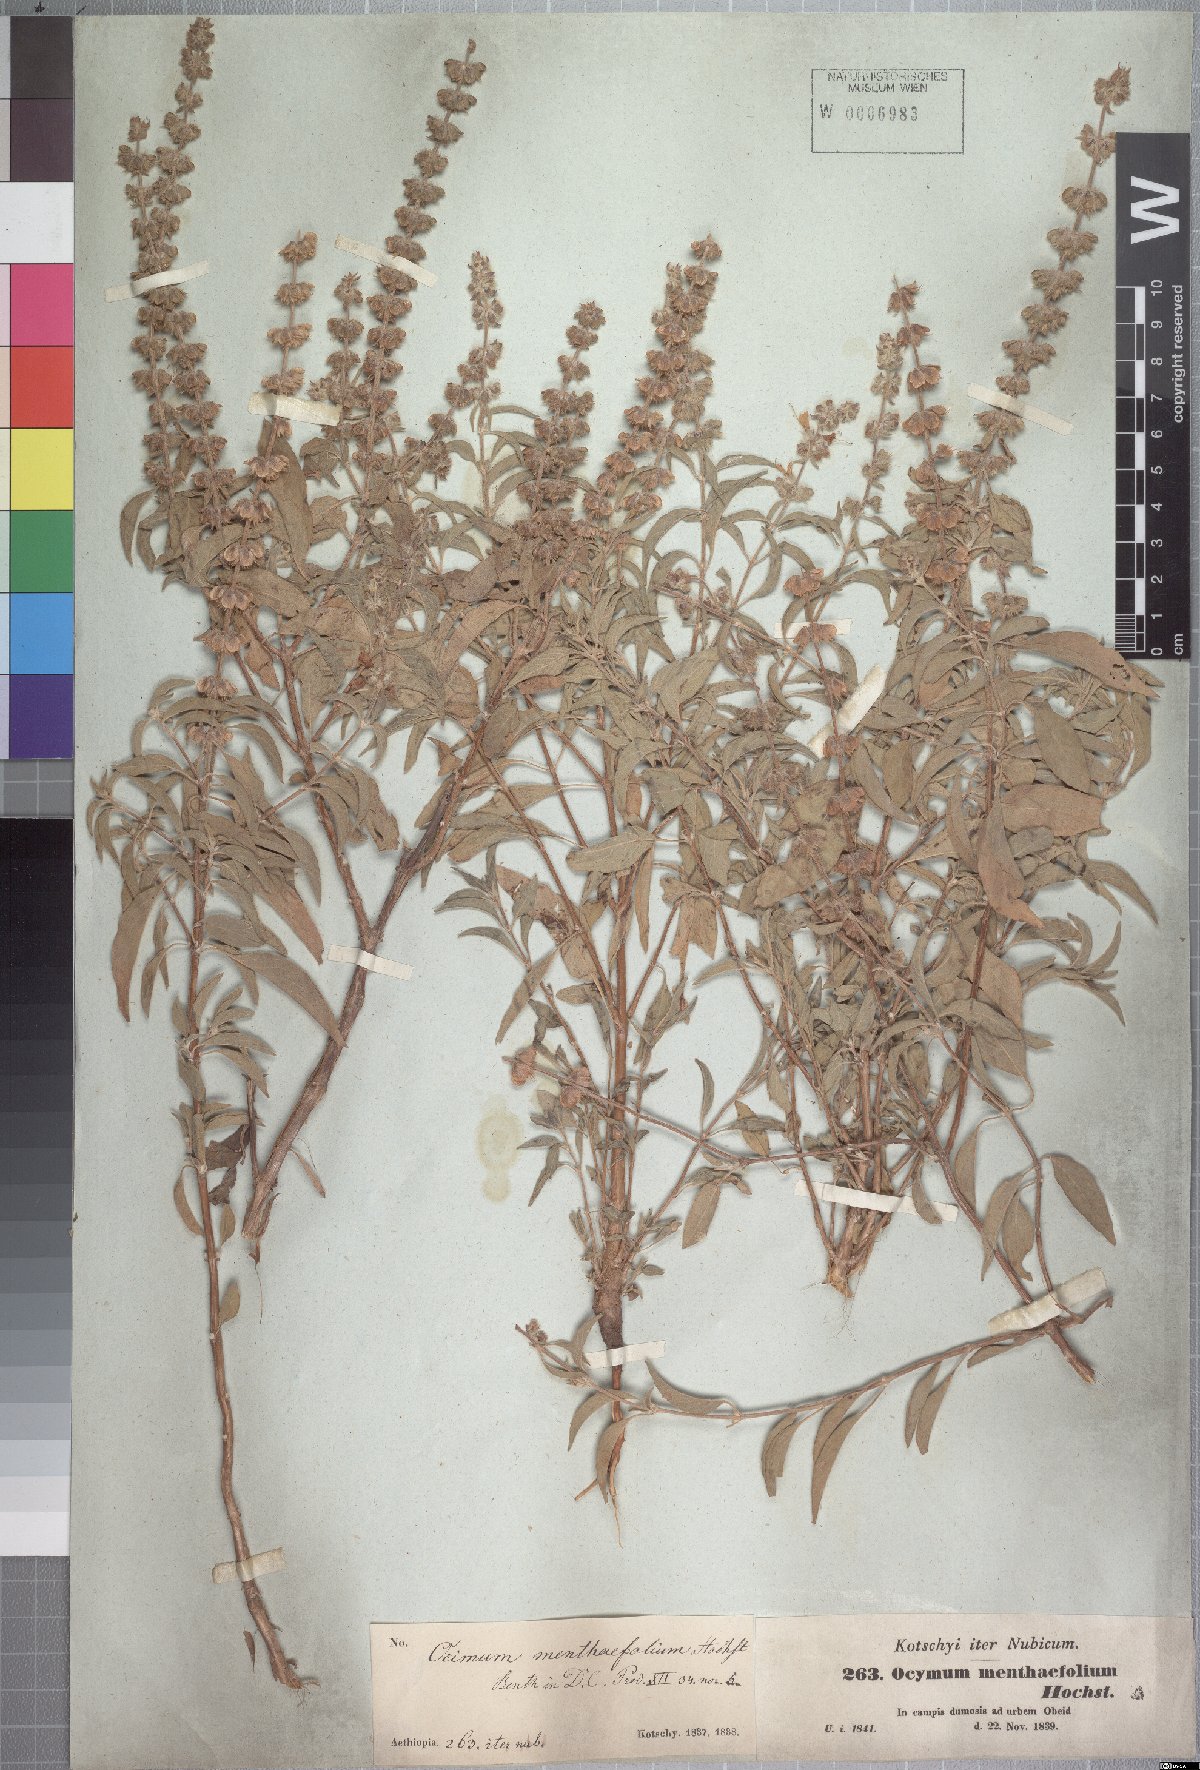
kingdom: Plantae
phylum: Tracheophyta
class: Magnoliopsida
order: Lamiales
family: Lamiaceae
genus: Ocimum
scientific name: Ocimum forskoelei
